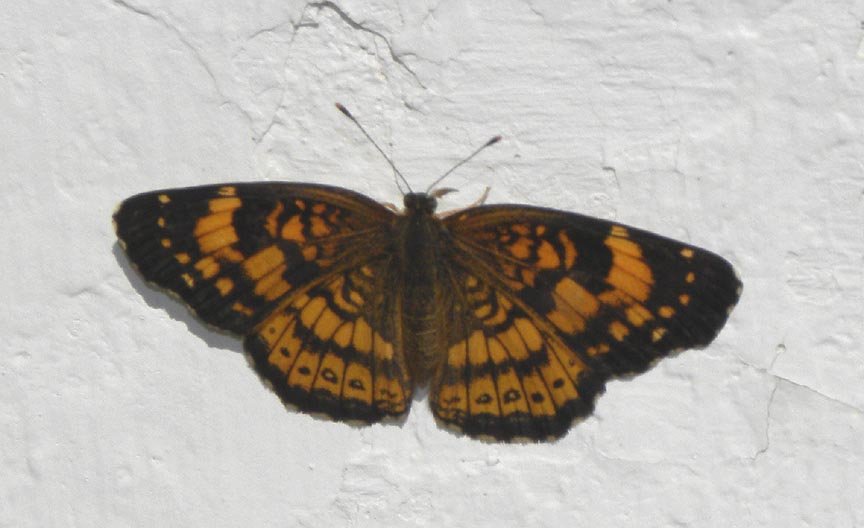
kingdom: Animalia
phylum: Arthropoda
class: Insecta
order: Lepidoptera
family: Nymphalidae
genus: Chlosyne
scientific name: Chlosyne nycteis
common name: Silvery Checkerspot
